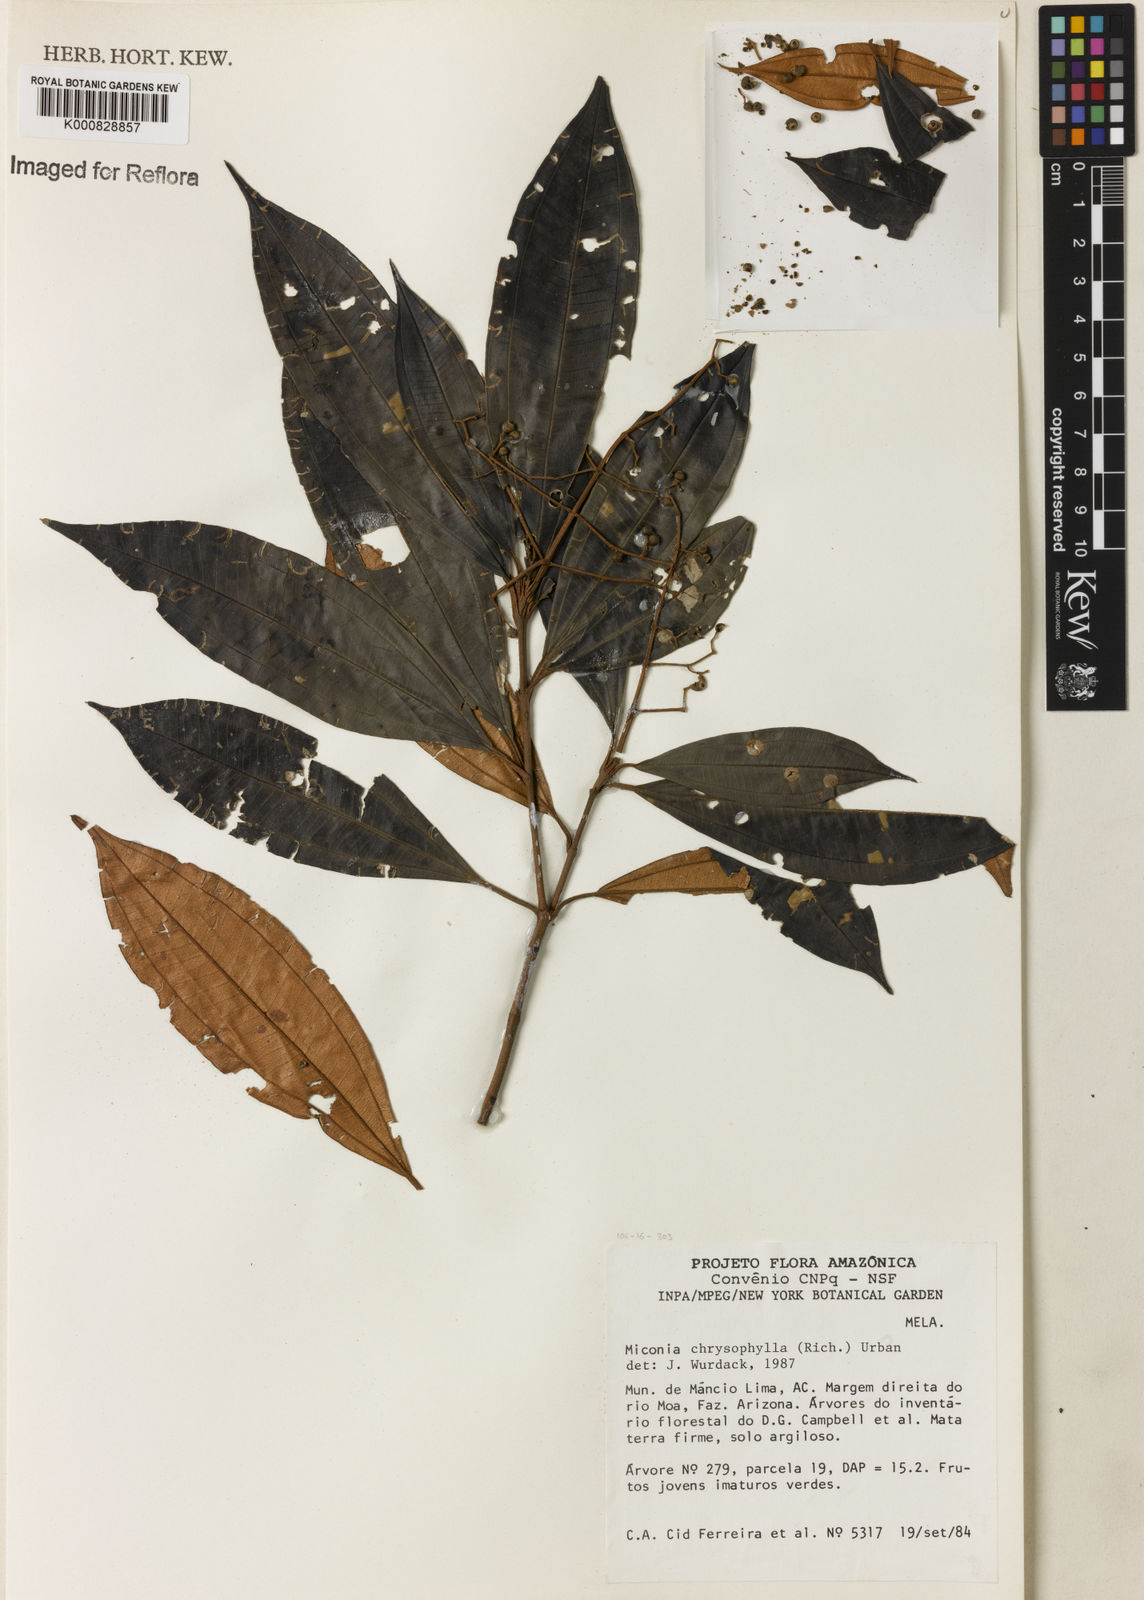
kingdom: Plantae
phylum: Tracheophyta
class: Magnoliopsida
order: Myrtales
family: Melastomataceae
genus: Miconia
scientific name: Miconia chrysophylla
